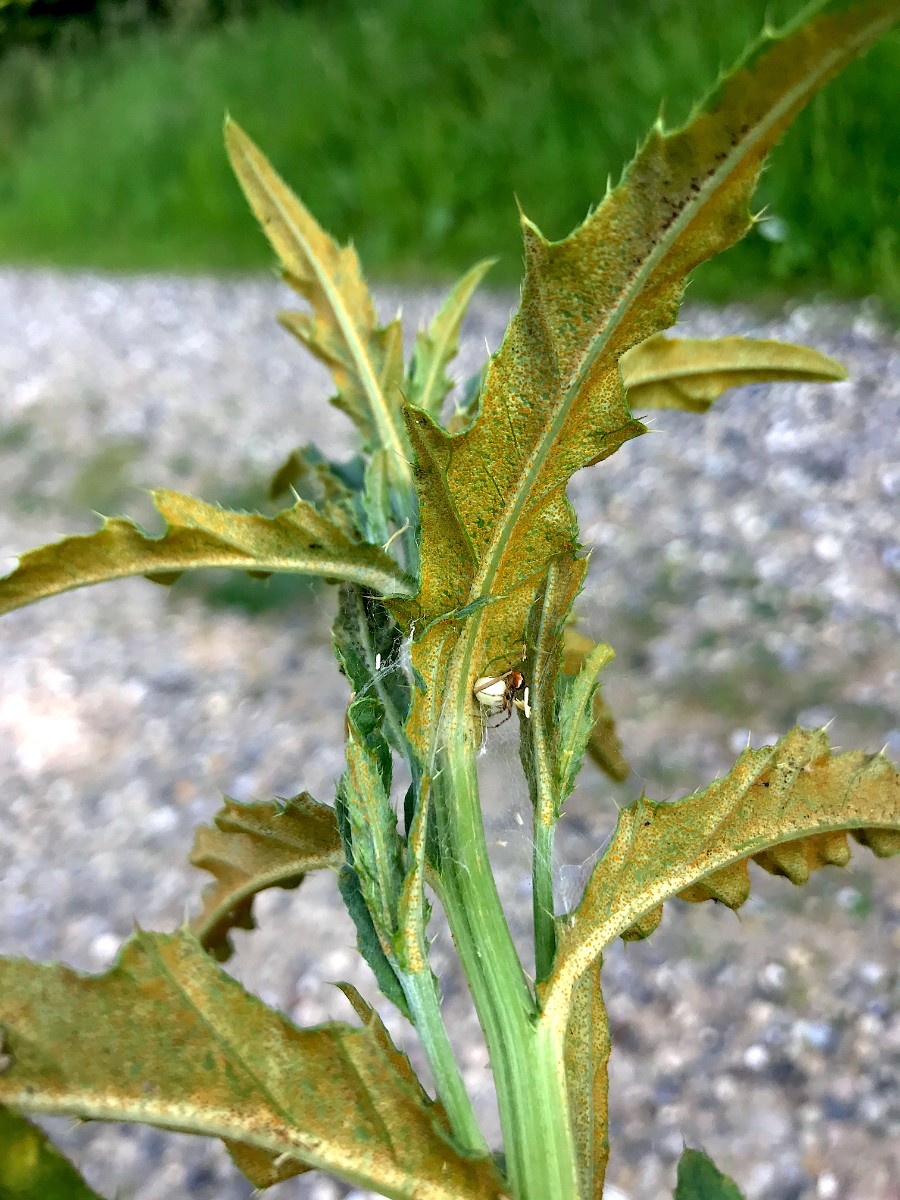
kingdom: Fungi
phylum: Basidiomycota
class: Pucciniomycetes
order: Pucciniales
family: Pucciniaceae
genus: Puccinia
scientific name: Puccinia suaveolens
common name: tidsel-tvecellerust
